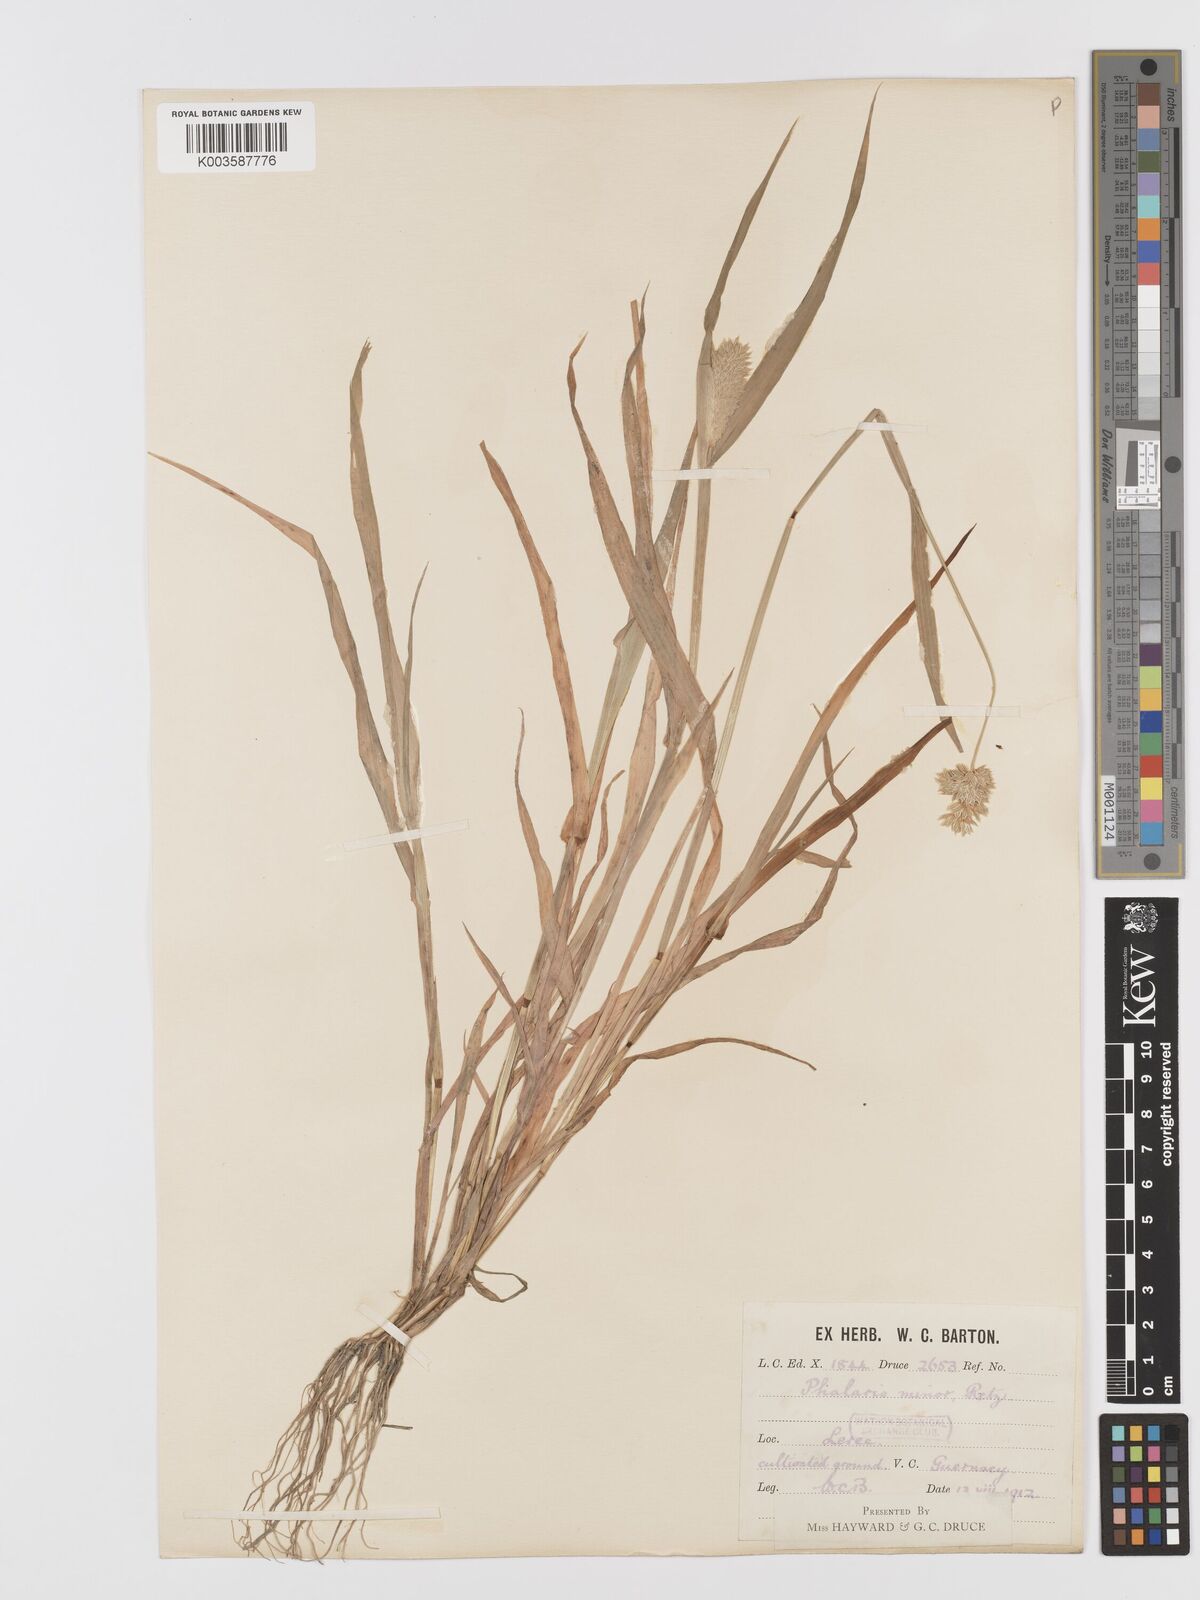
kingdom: Plantae
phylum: Tracheophyta
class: Liliopsida
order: Poales
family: Poaceae
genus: Phalaris
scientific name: Phalaris minor
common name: Littleseed canarygrass
